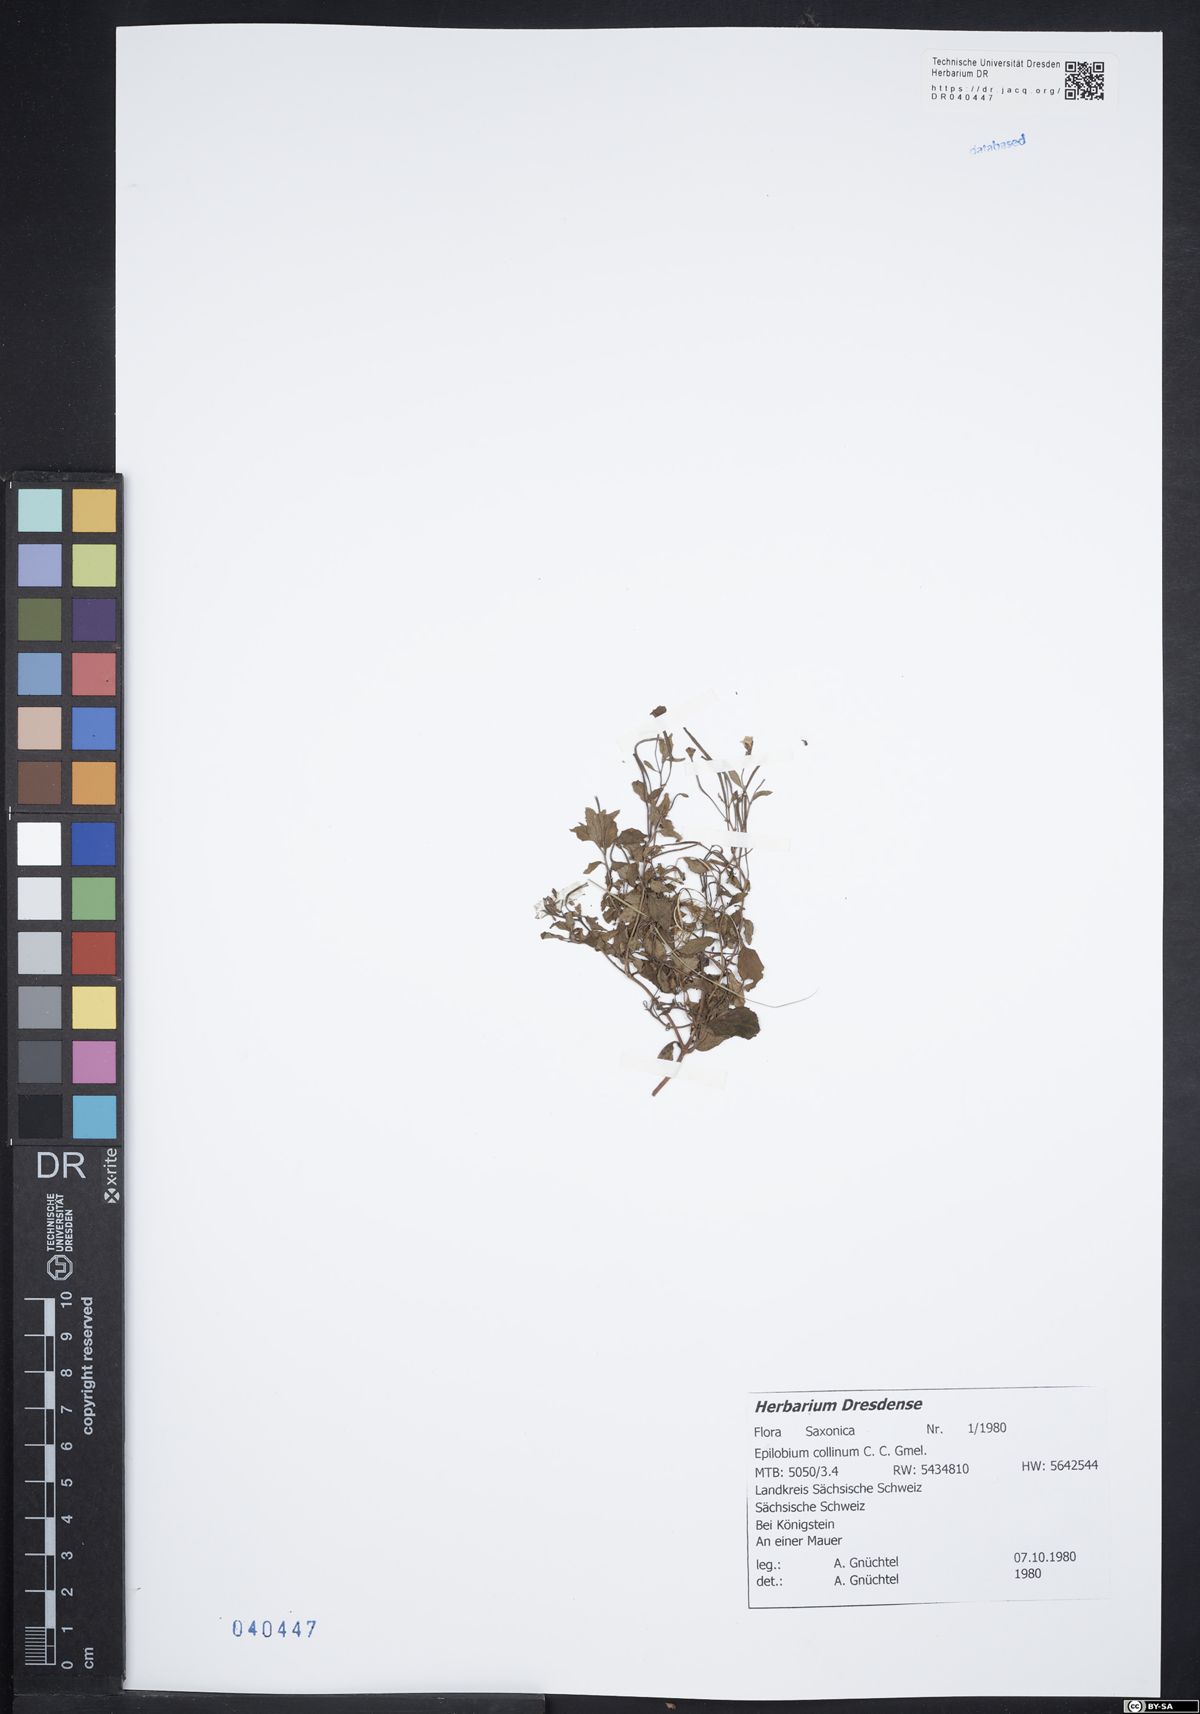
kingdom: Plantae
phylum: Tracheophyta
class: Magnoliopsida
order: Myrtales
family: Onagraceae
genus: Epilobium
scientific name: Epilobium collinum
